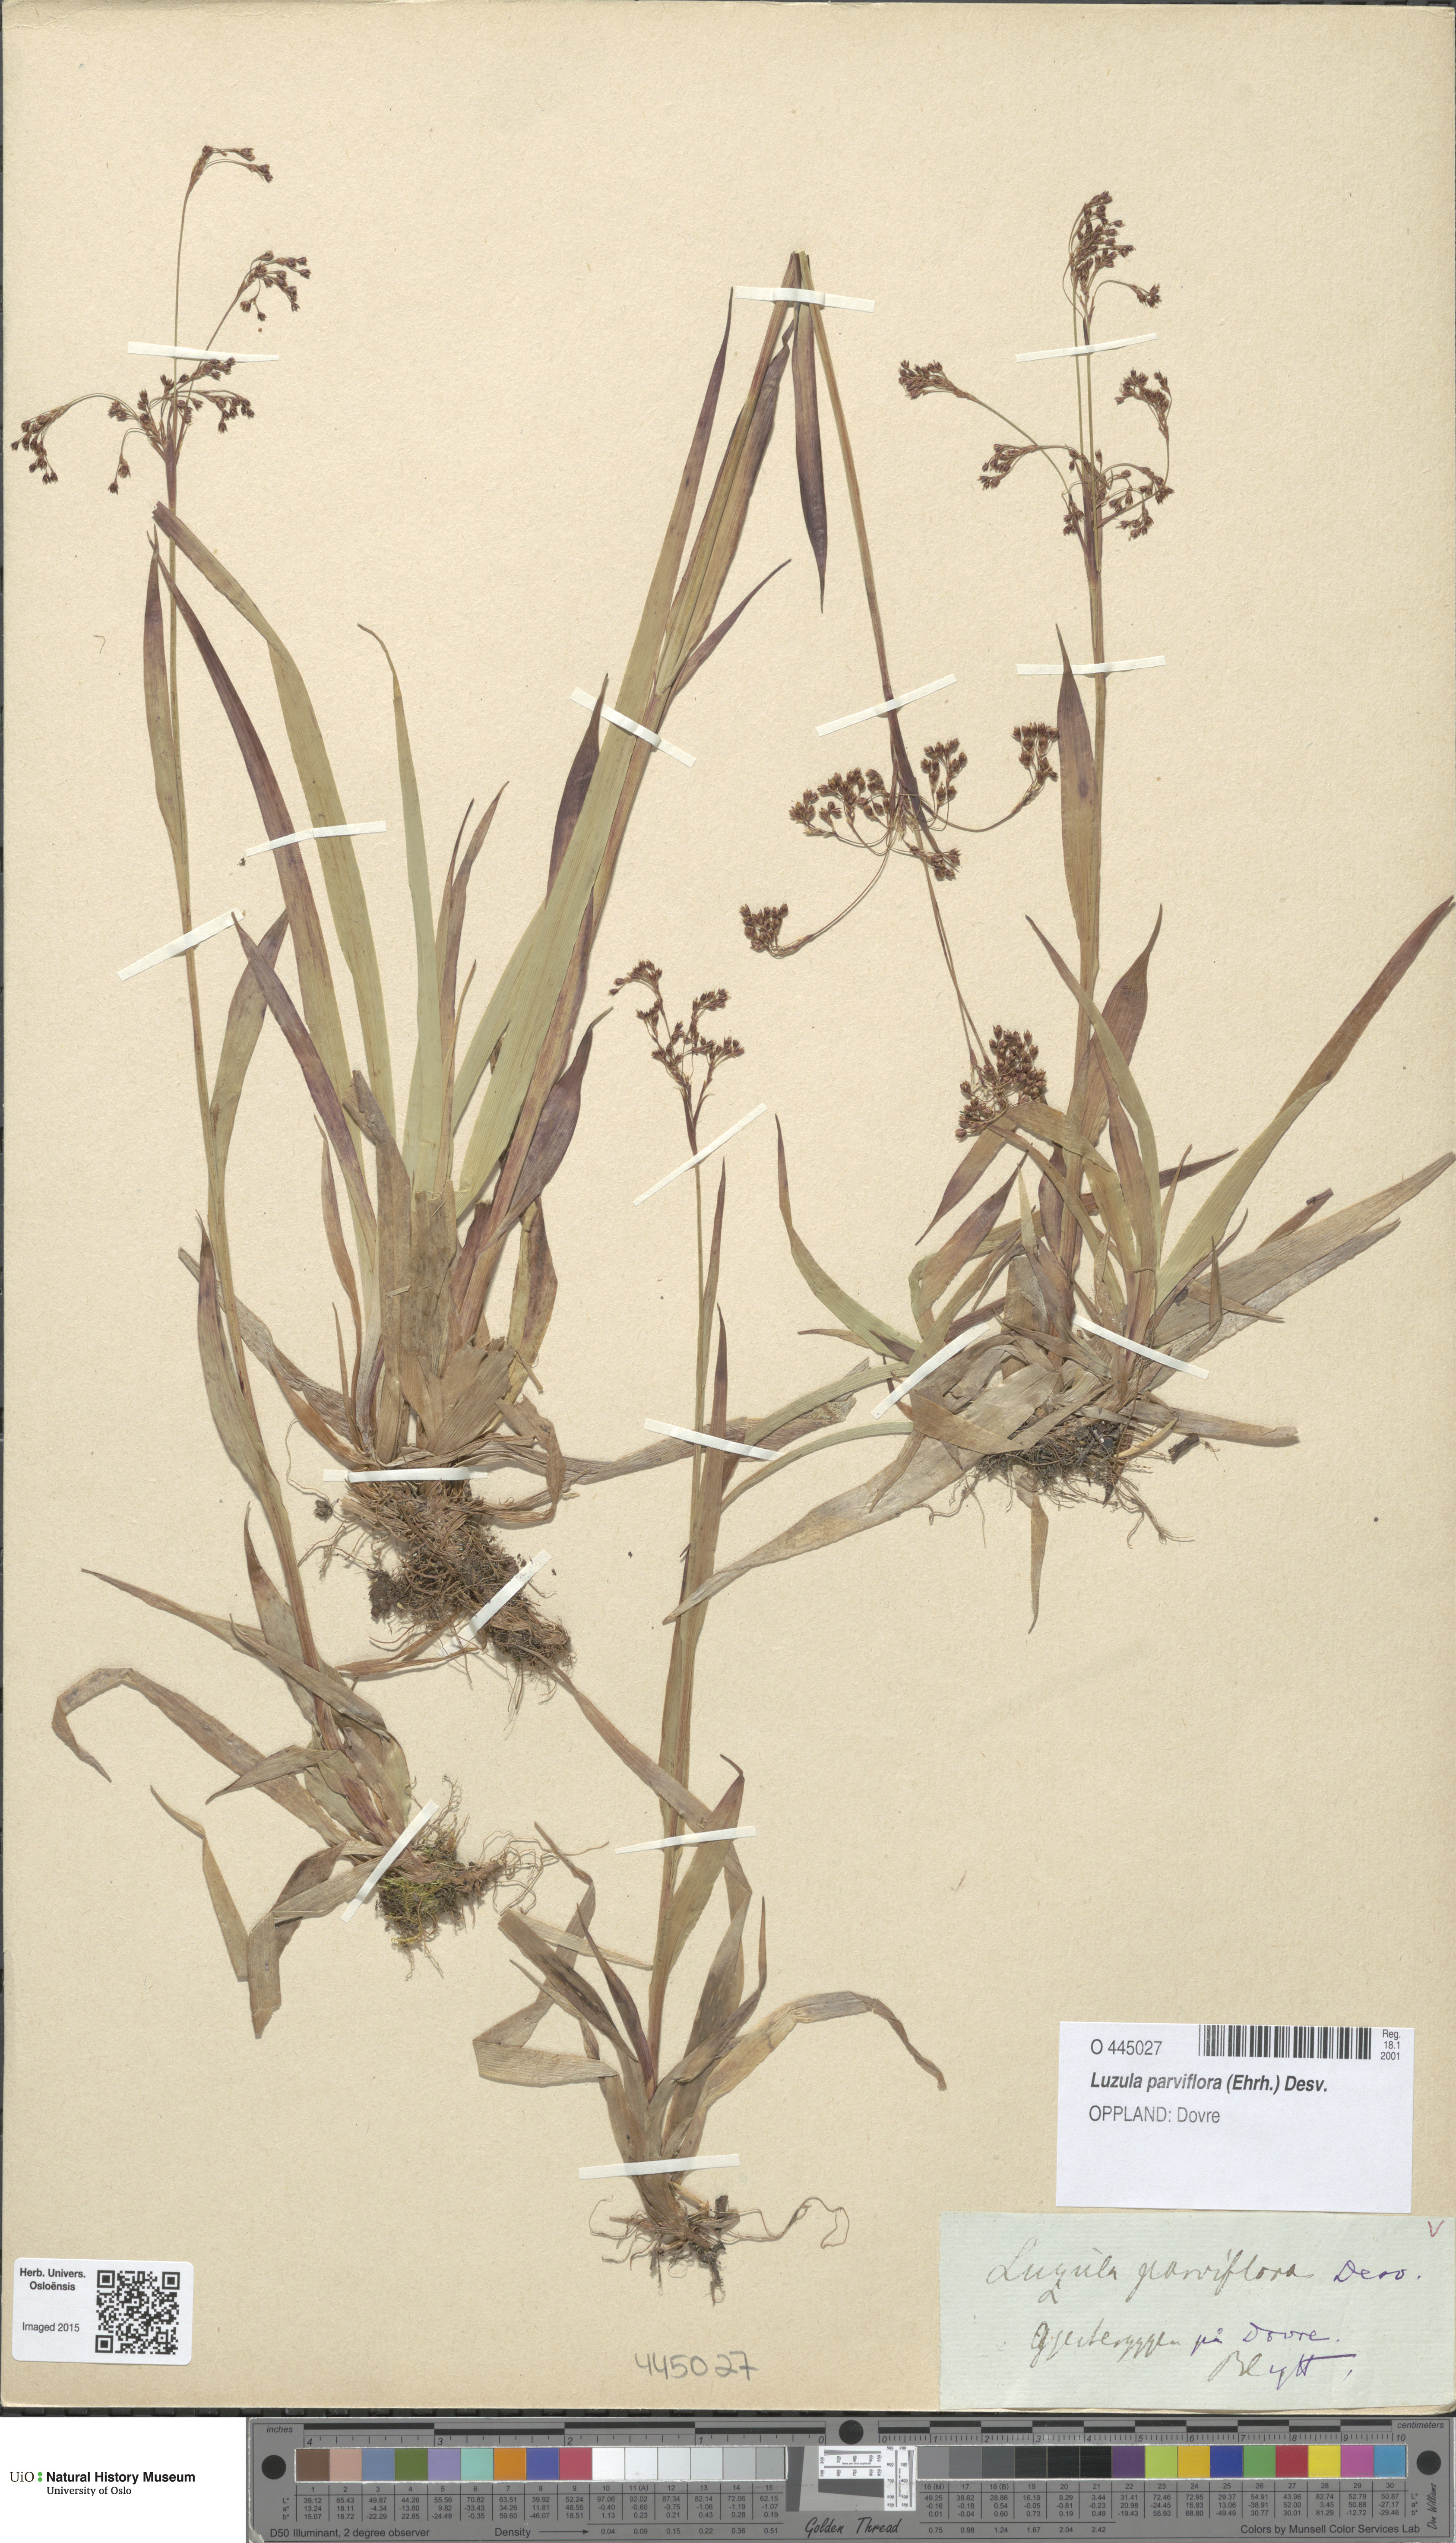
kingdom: Plantae
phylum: Tracheophyta
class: Liliopsida
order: Poales
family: Juncaceae
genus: Luzula
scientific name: Luzula parviflora
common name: Millet woodrush
